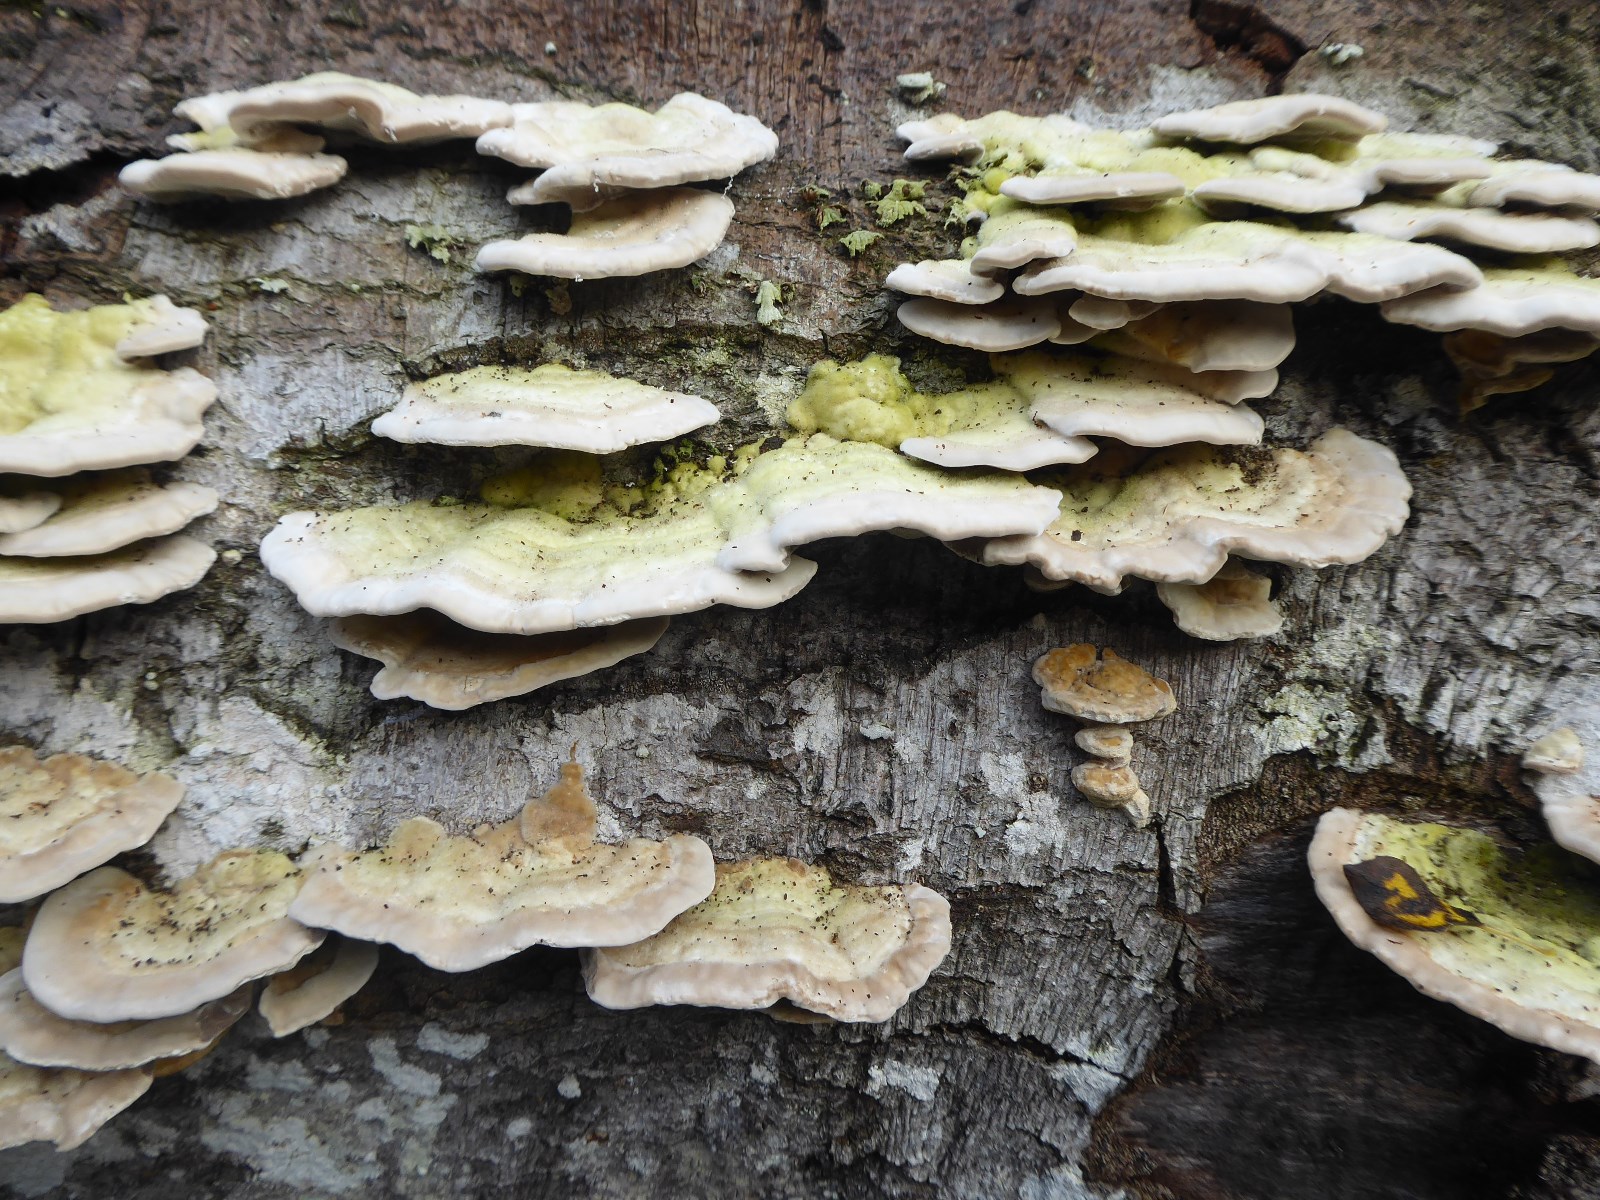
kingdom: Fungi
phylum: Basidiomycota
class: Agaricomycetes
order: Polyporales
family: Polyporaceae
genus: Trametes
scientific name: Trametes gibbosa
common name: puklet læderporesvamp
